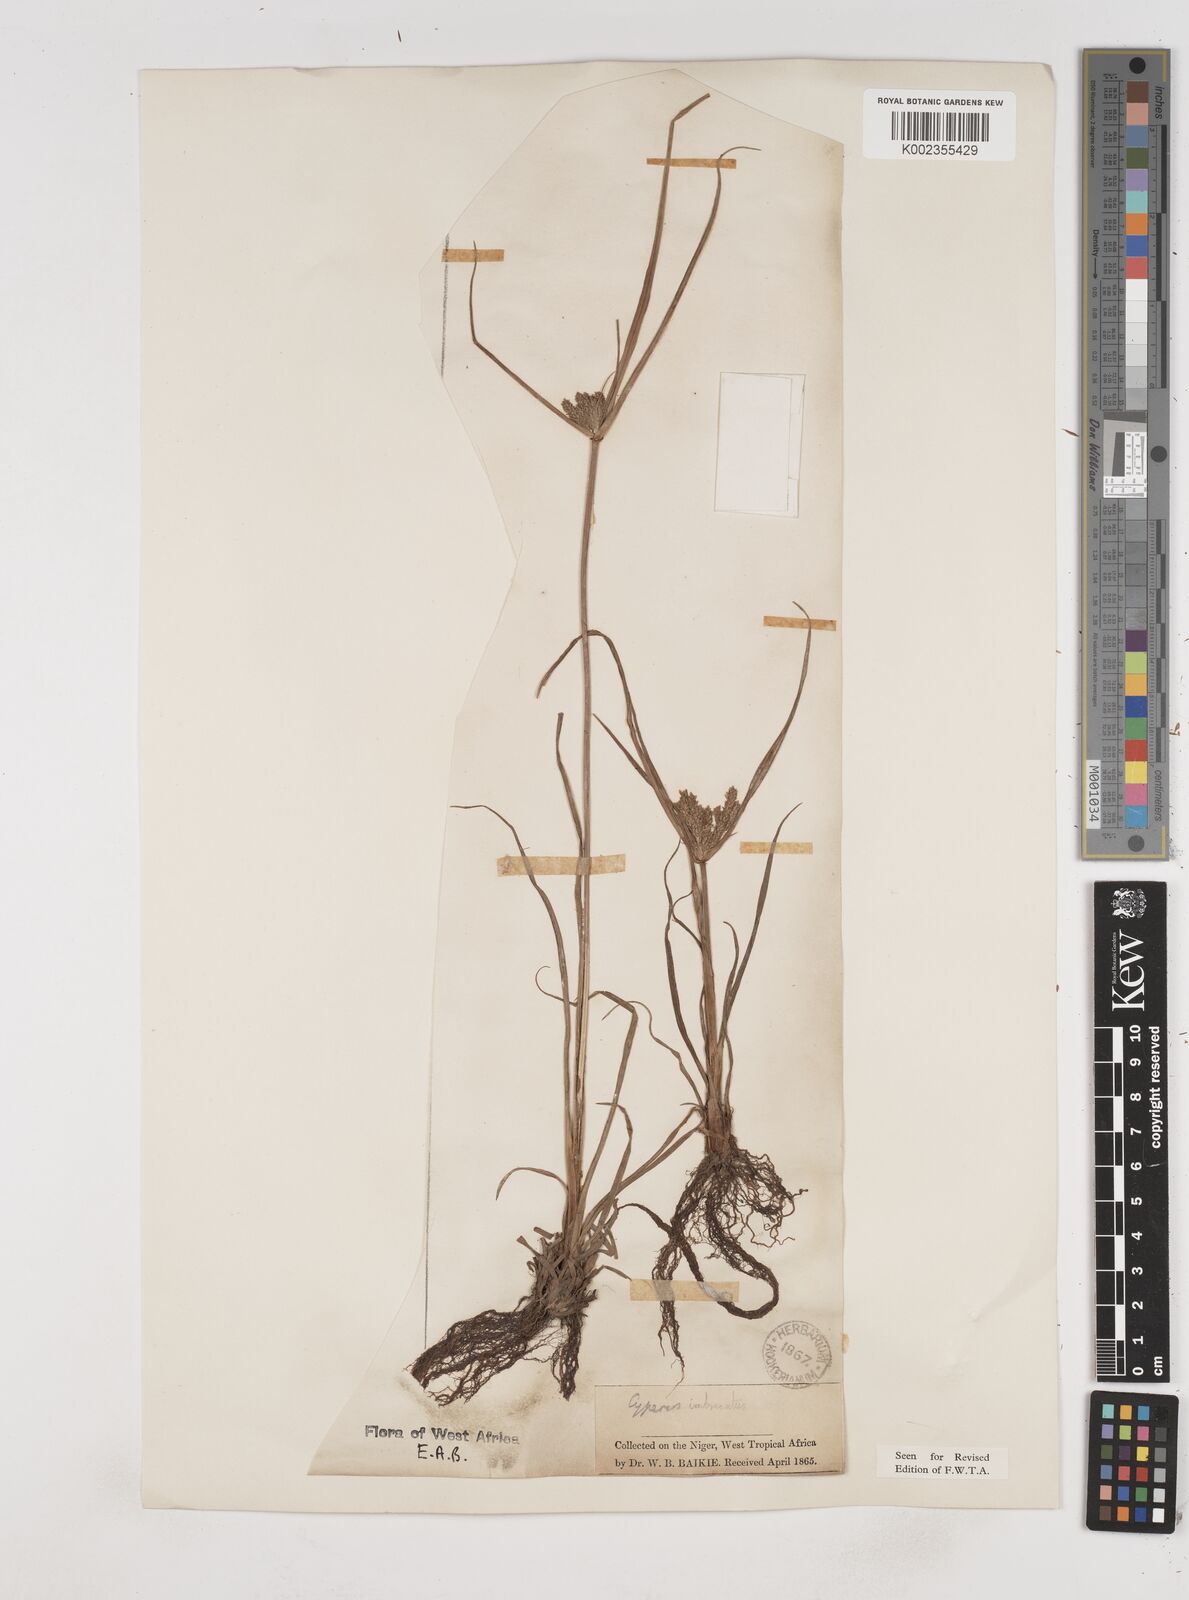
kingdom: Plantae
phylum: Tracheophyta
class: Liliopsida
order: Poales
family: Cyperaceae
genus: Cyperus
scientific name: Cyperus imbricatus
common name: Shingle flatsedge
